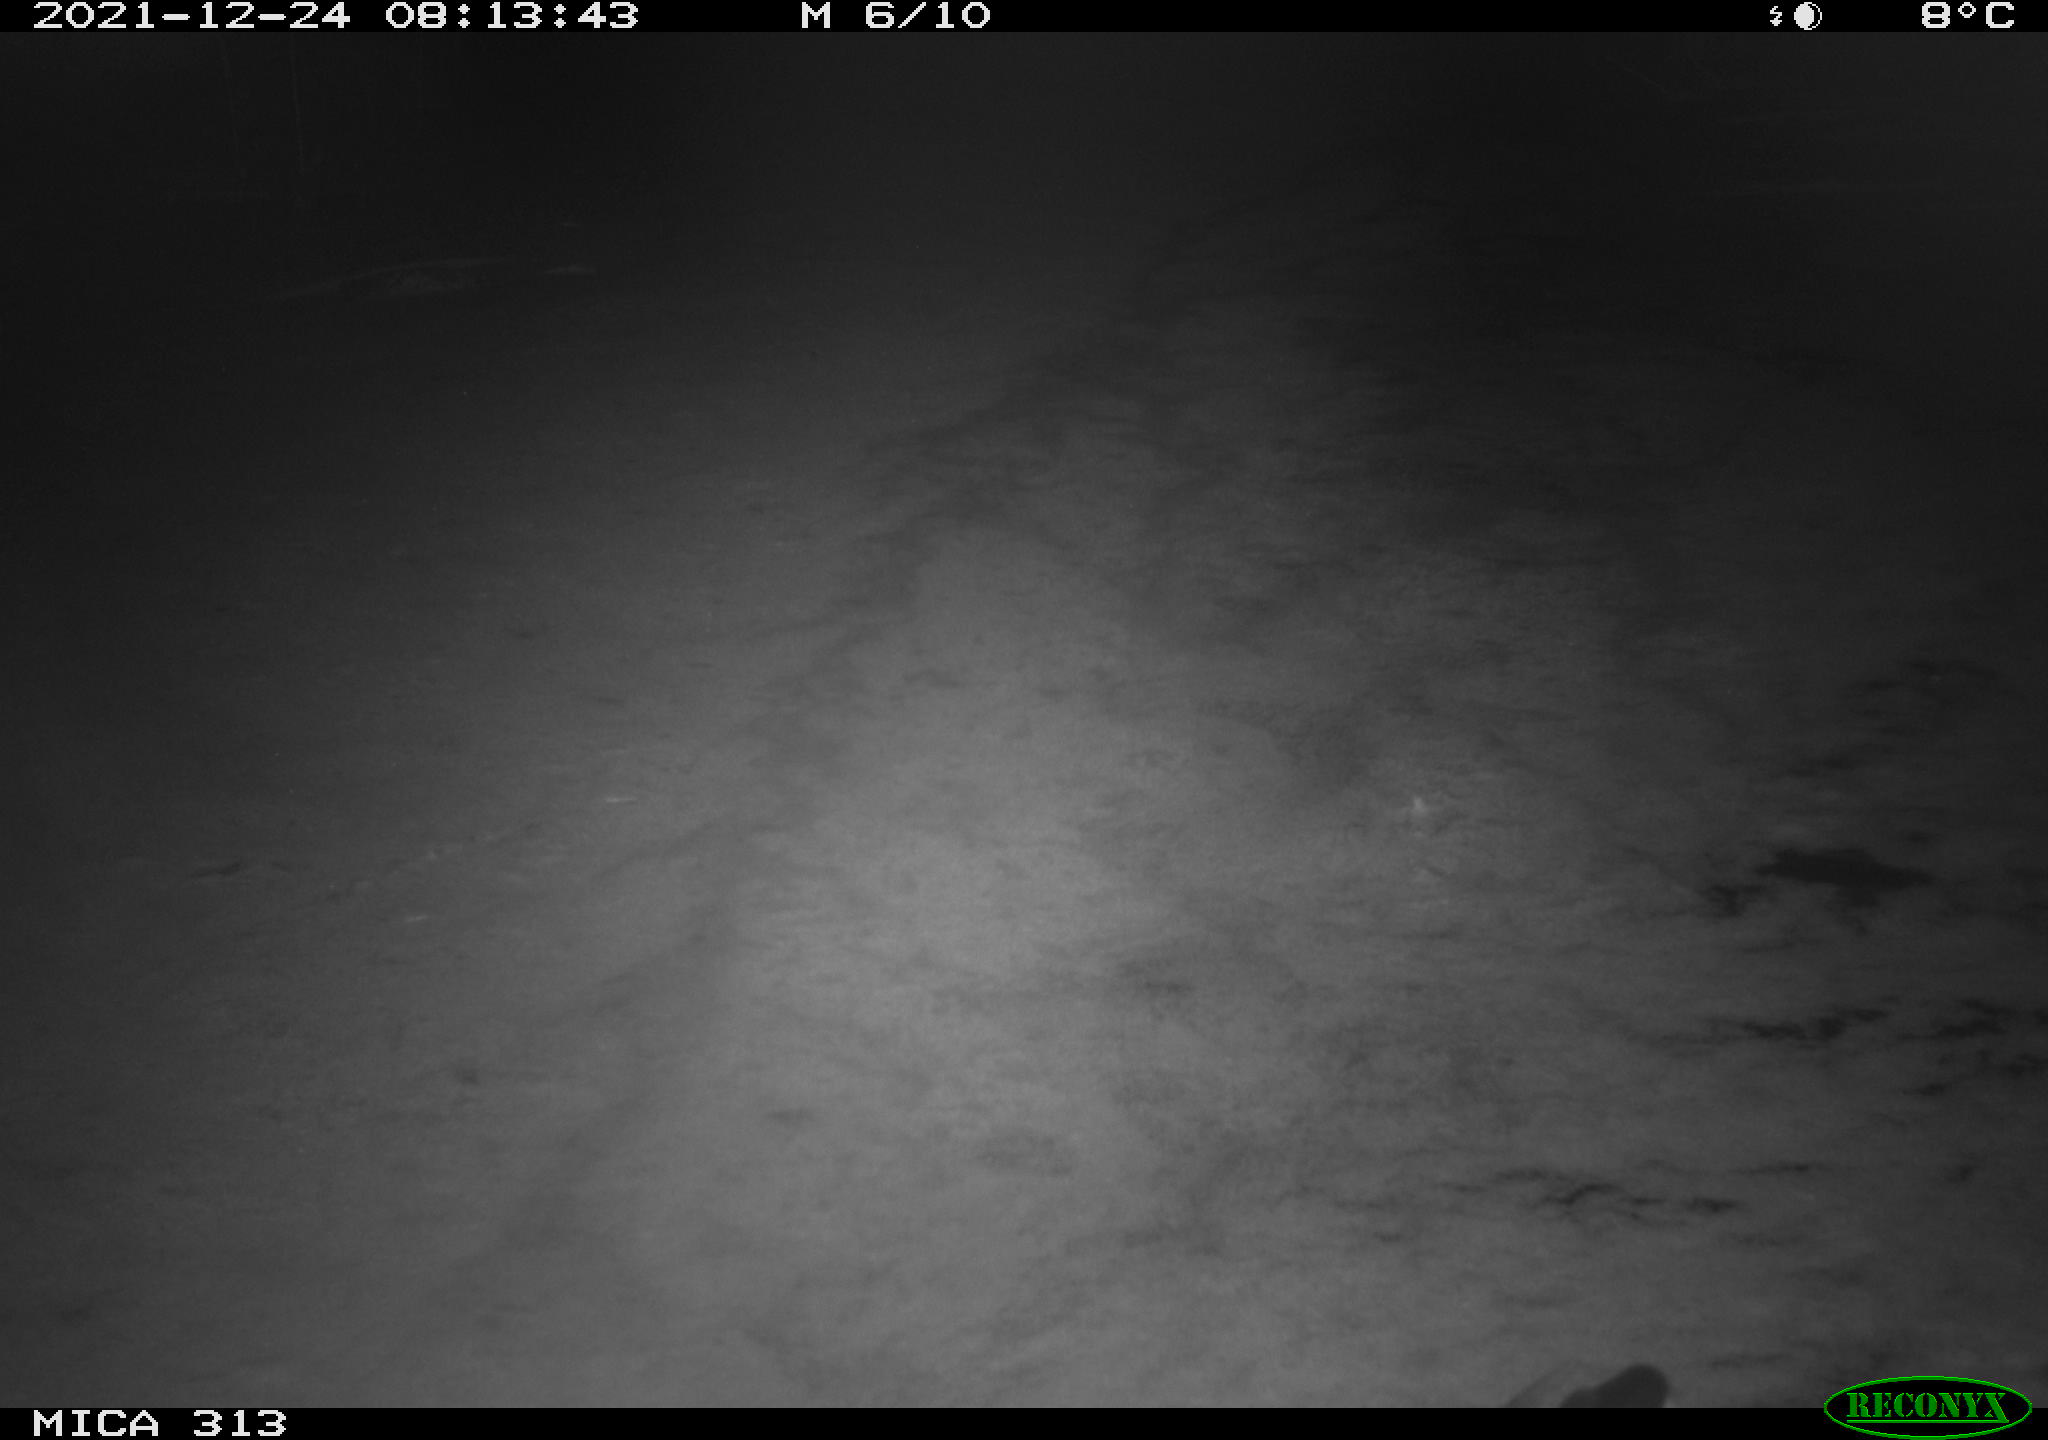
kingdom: Animalia
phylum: Chordata
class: Aves
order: Gruiformes
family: Rallidae
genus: Fulica
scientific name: Fulica atra
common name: Eurasian coot
